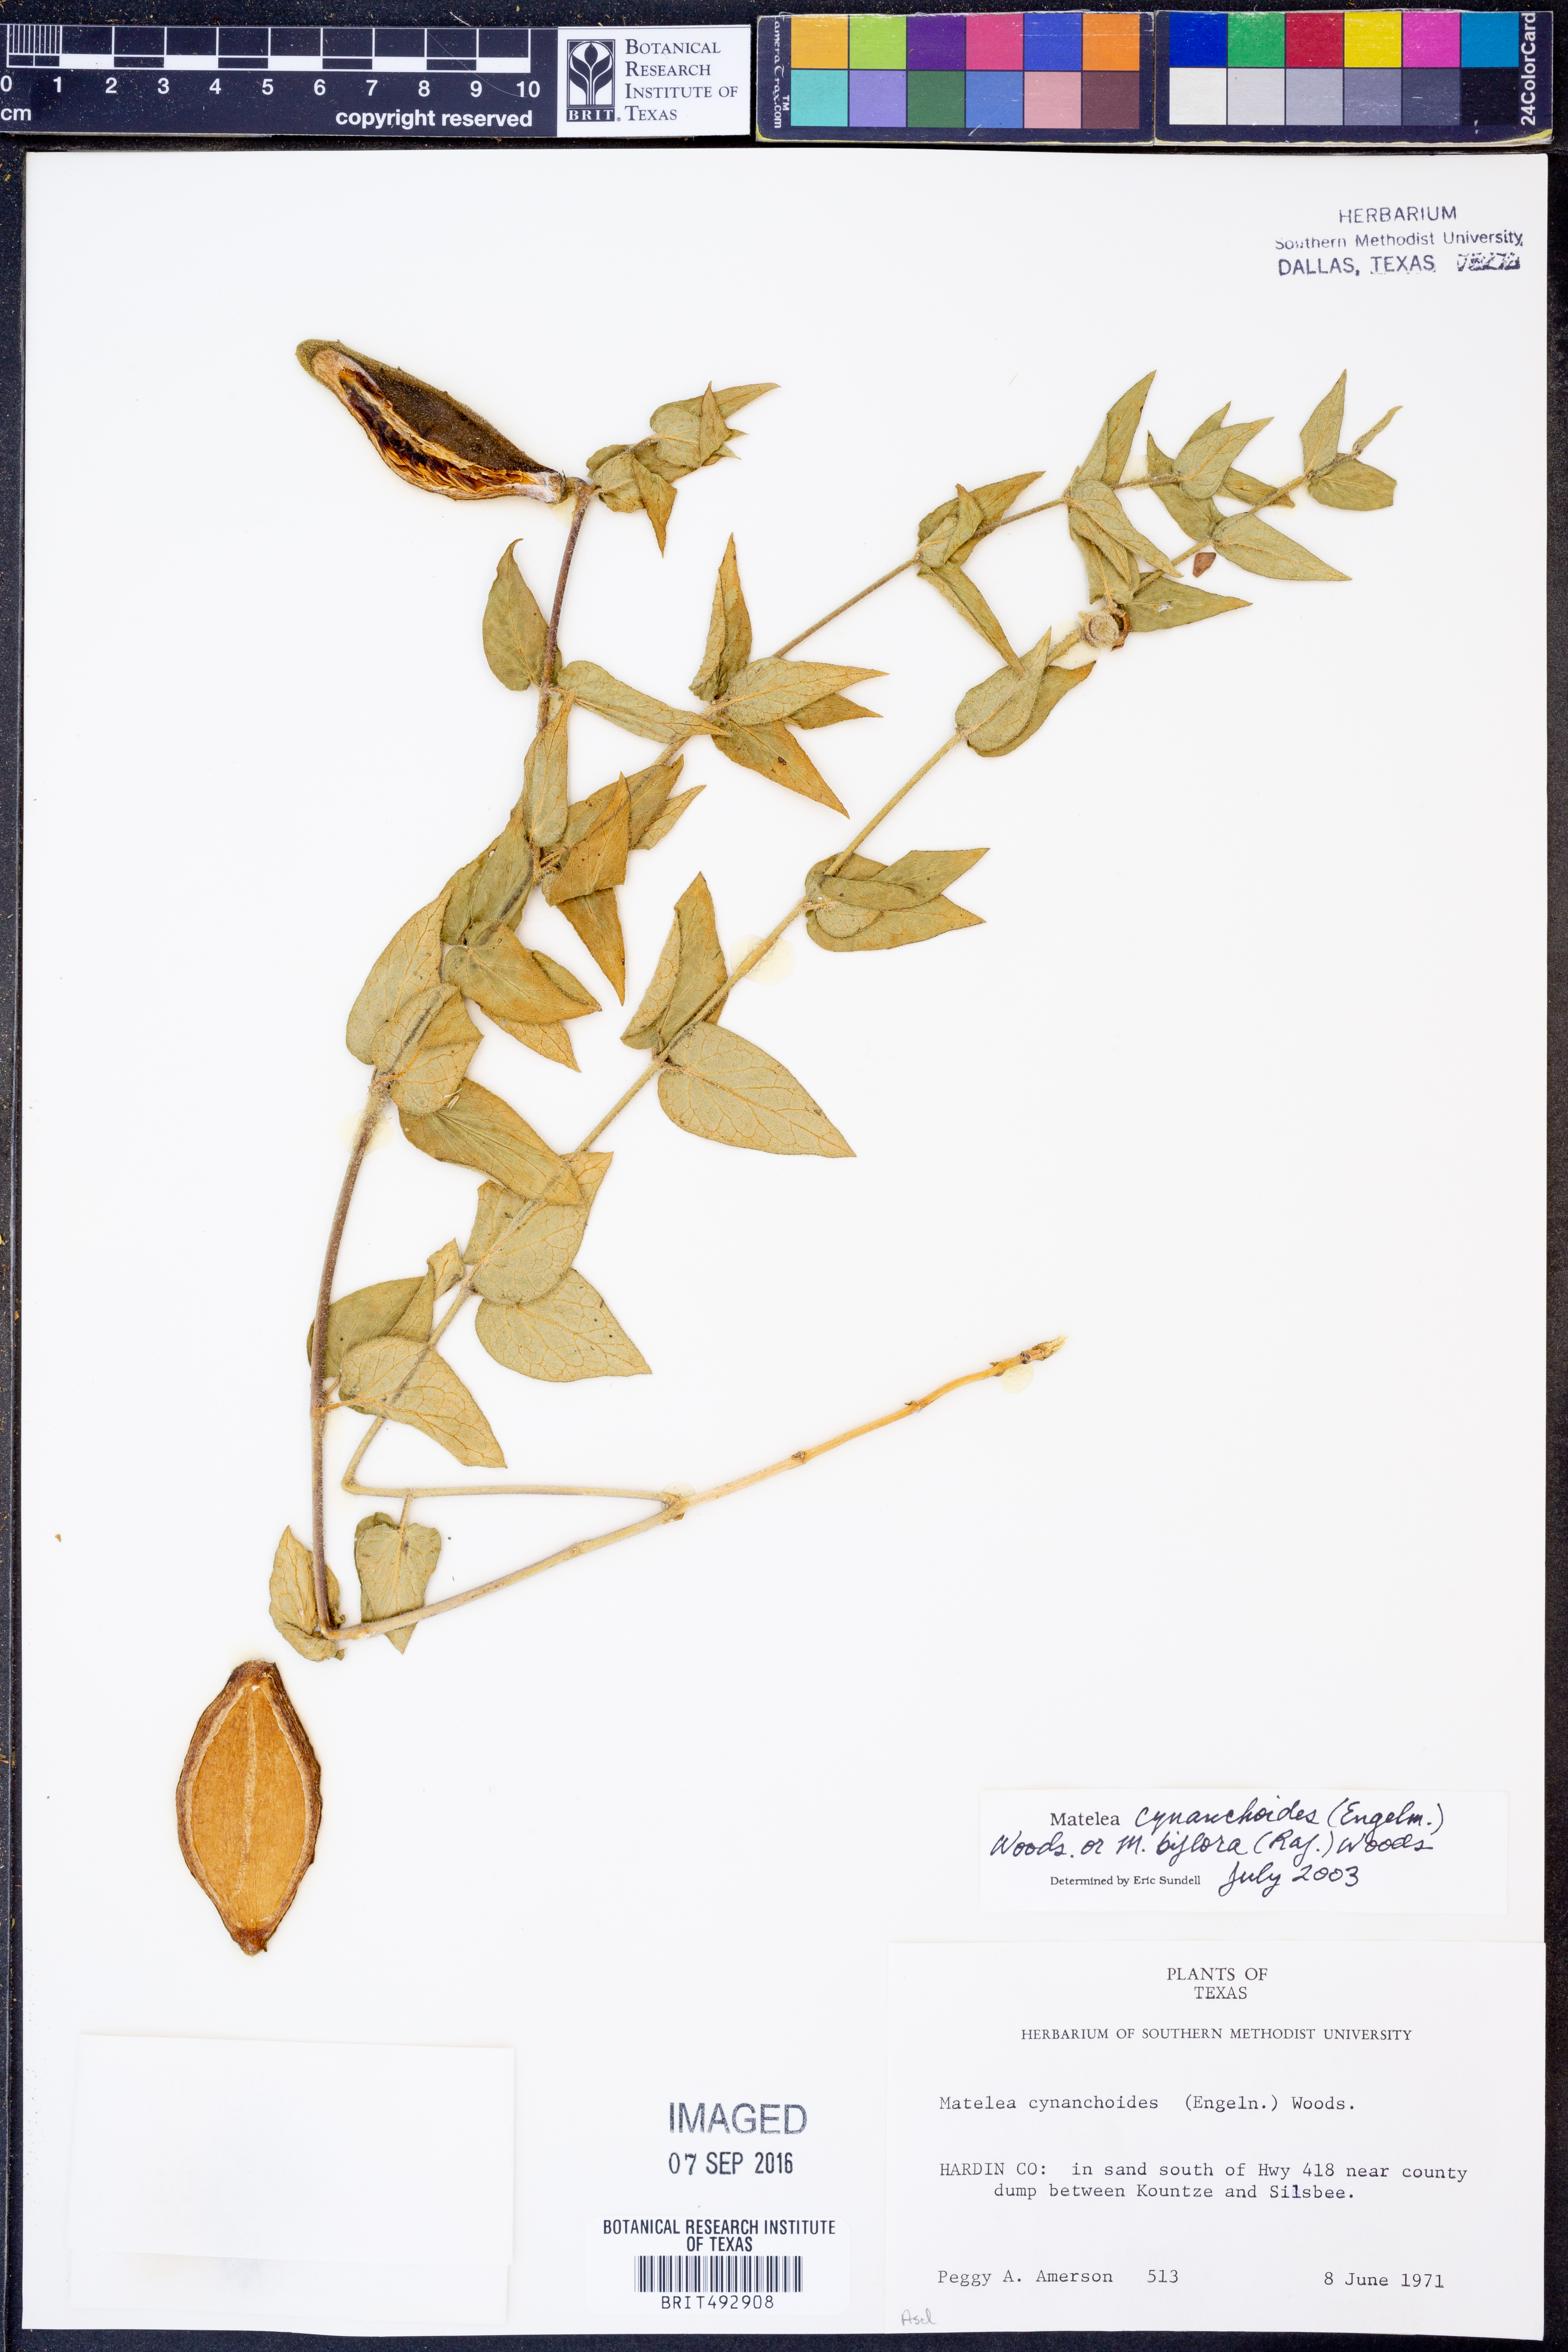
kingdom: Plantae
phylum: Tracheophyta
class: Magnoliopsida
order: Gentianales
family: Apocynaceae
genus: Matelea
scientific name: Matelea cynanchoides
